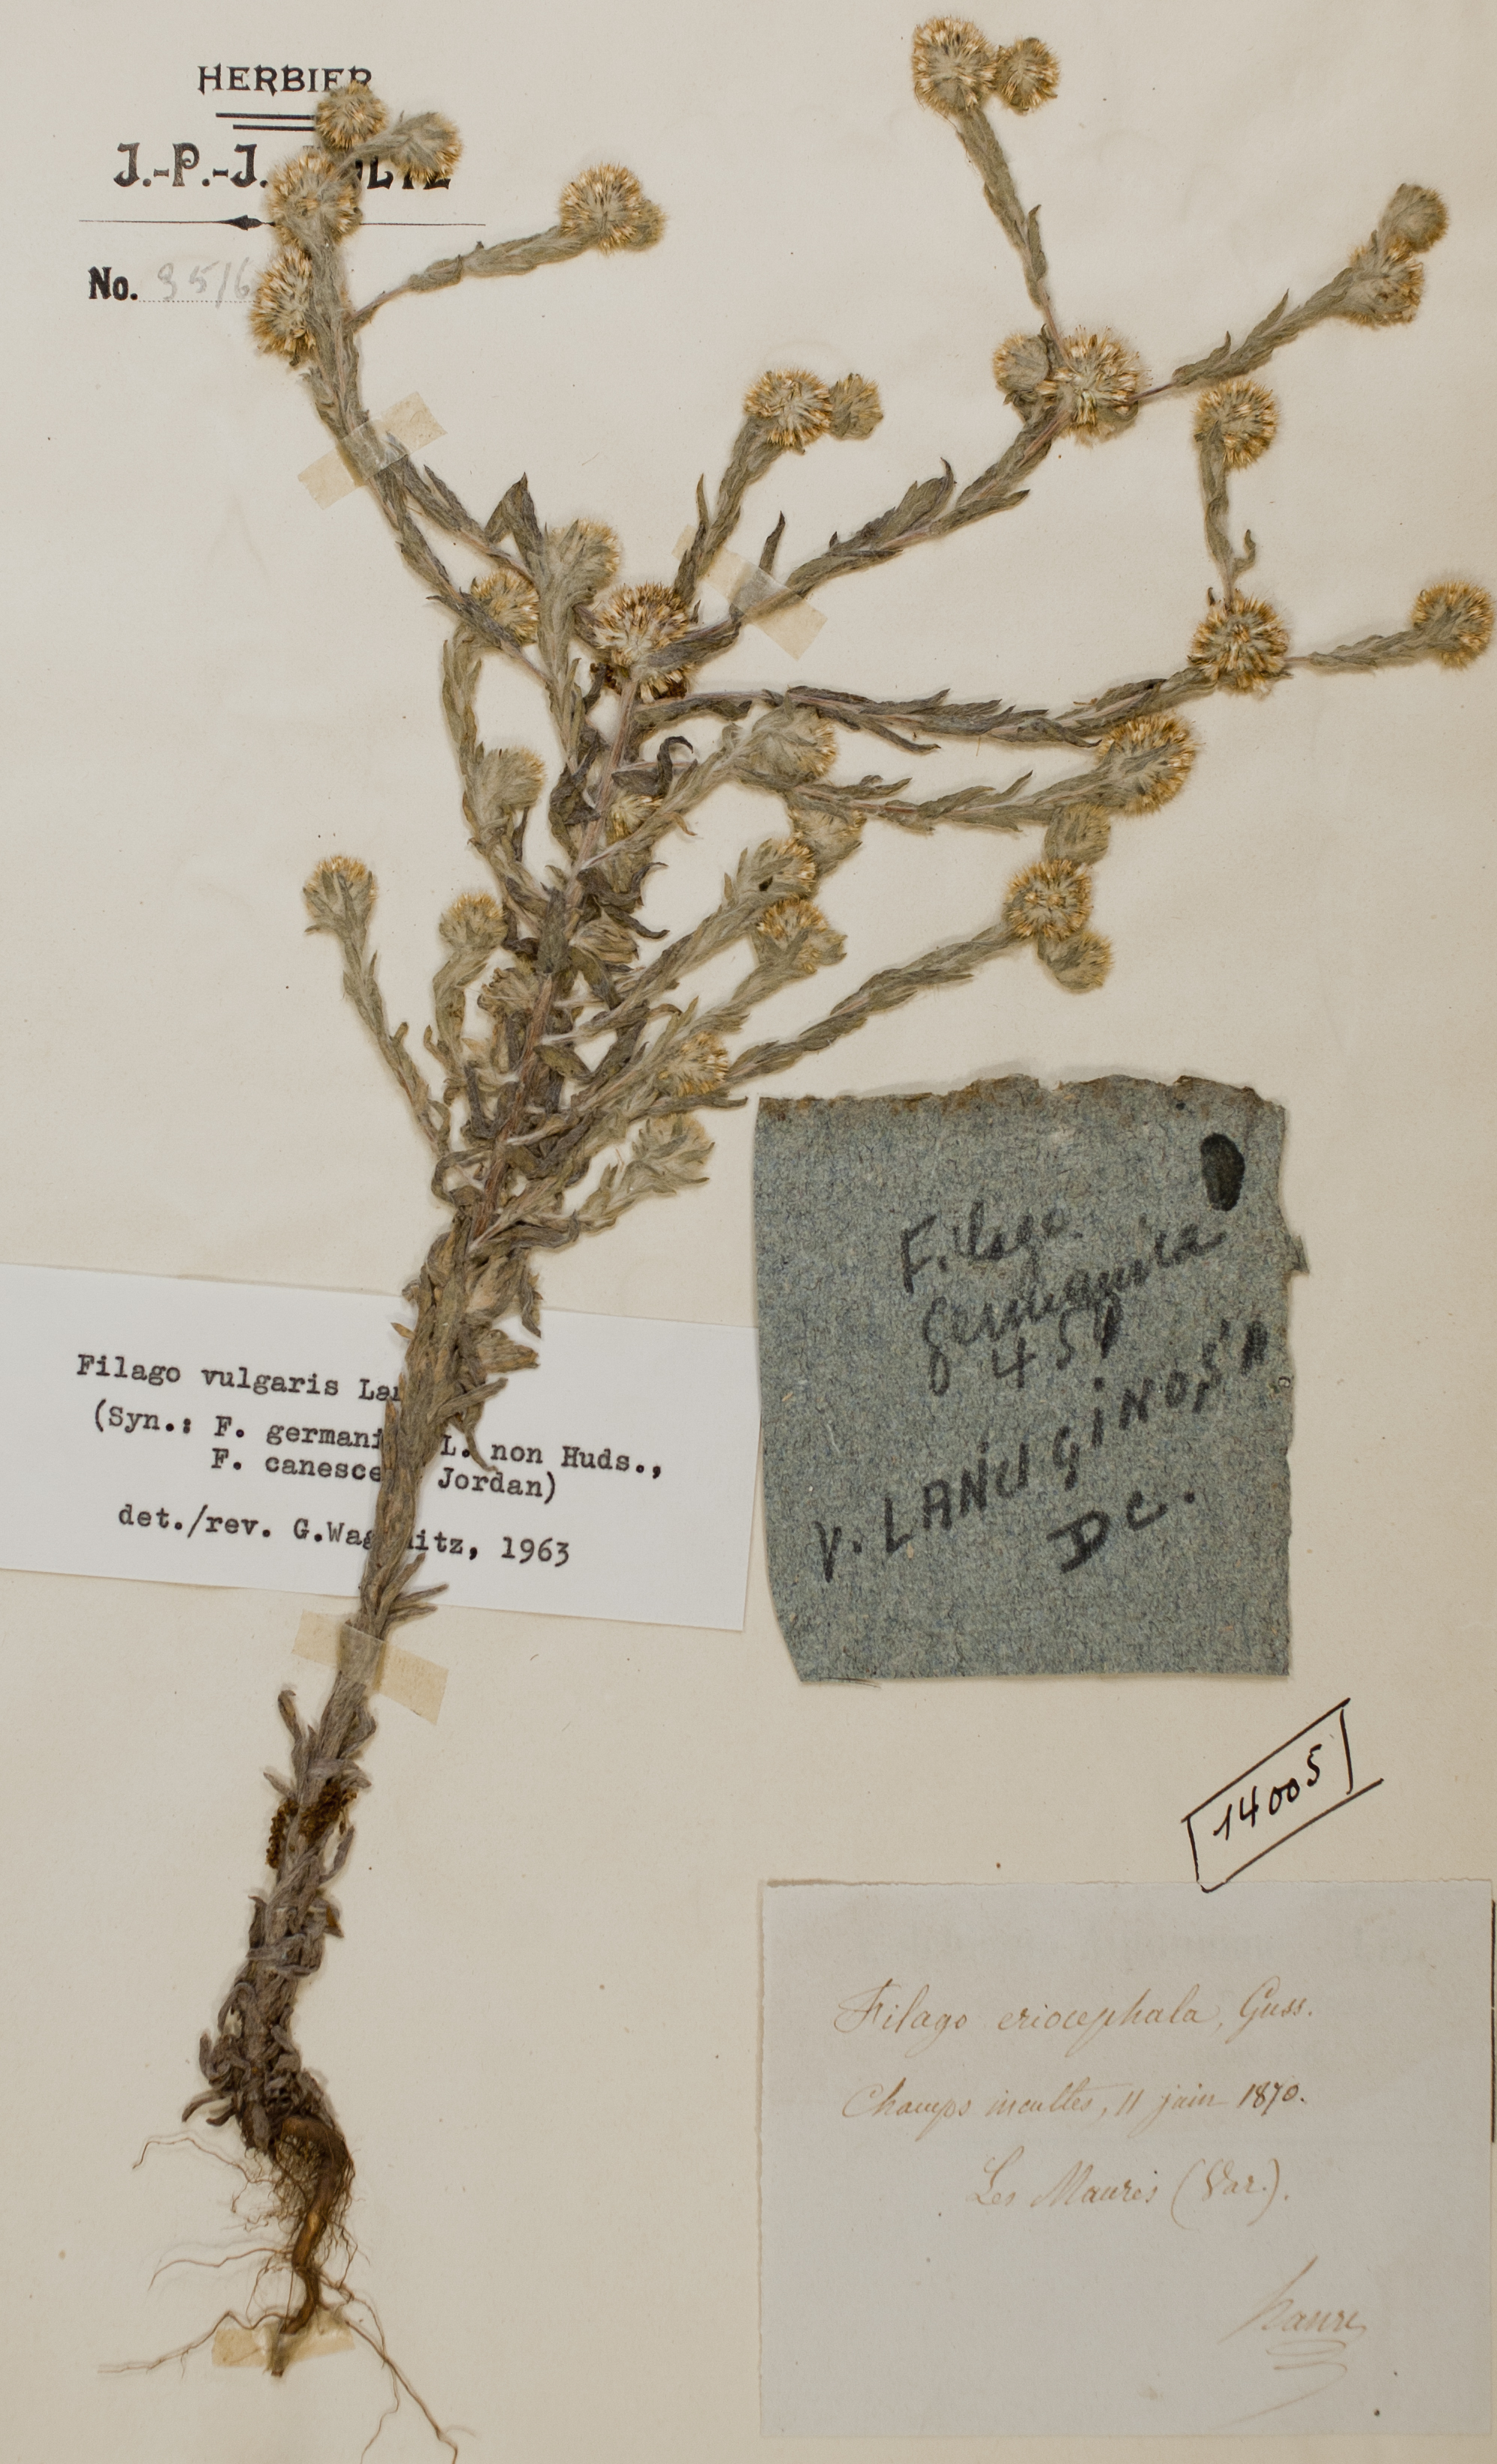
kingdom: Plantae
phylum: Tracheophyta
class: Magnoliopsida
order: Asterales
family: Asteraceae
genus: Filago
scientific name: Filago germanica
